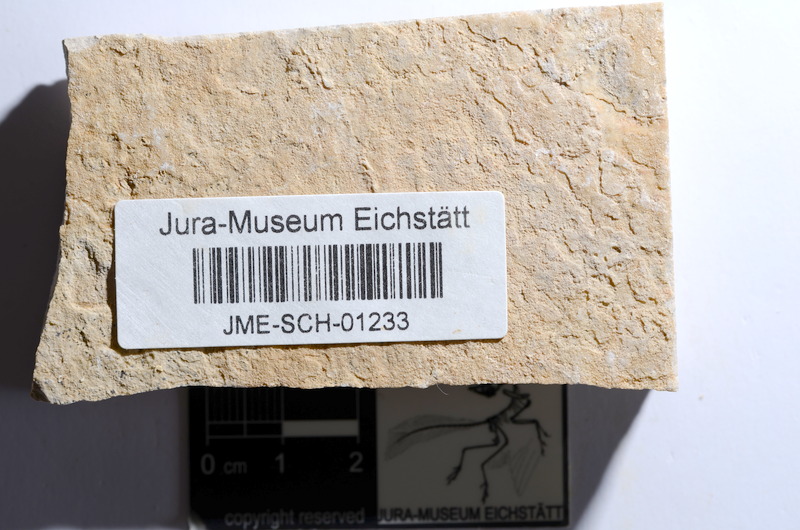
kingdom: Animalia
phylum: Chordata
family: Ascalaboidae
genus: Tharsis
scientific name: Tharsis dubius
